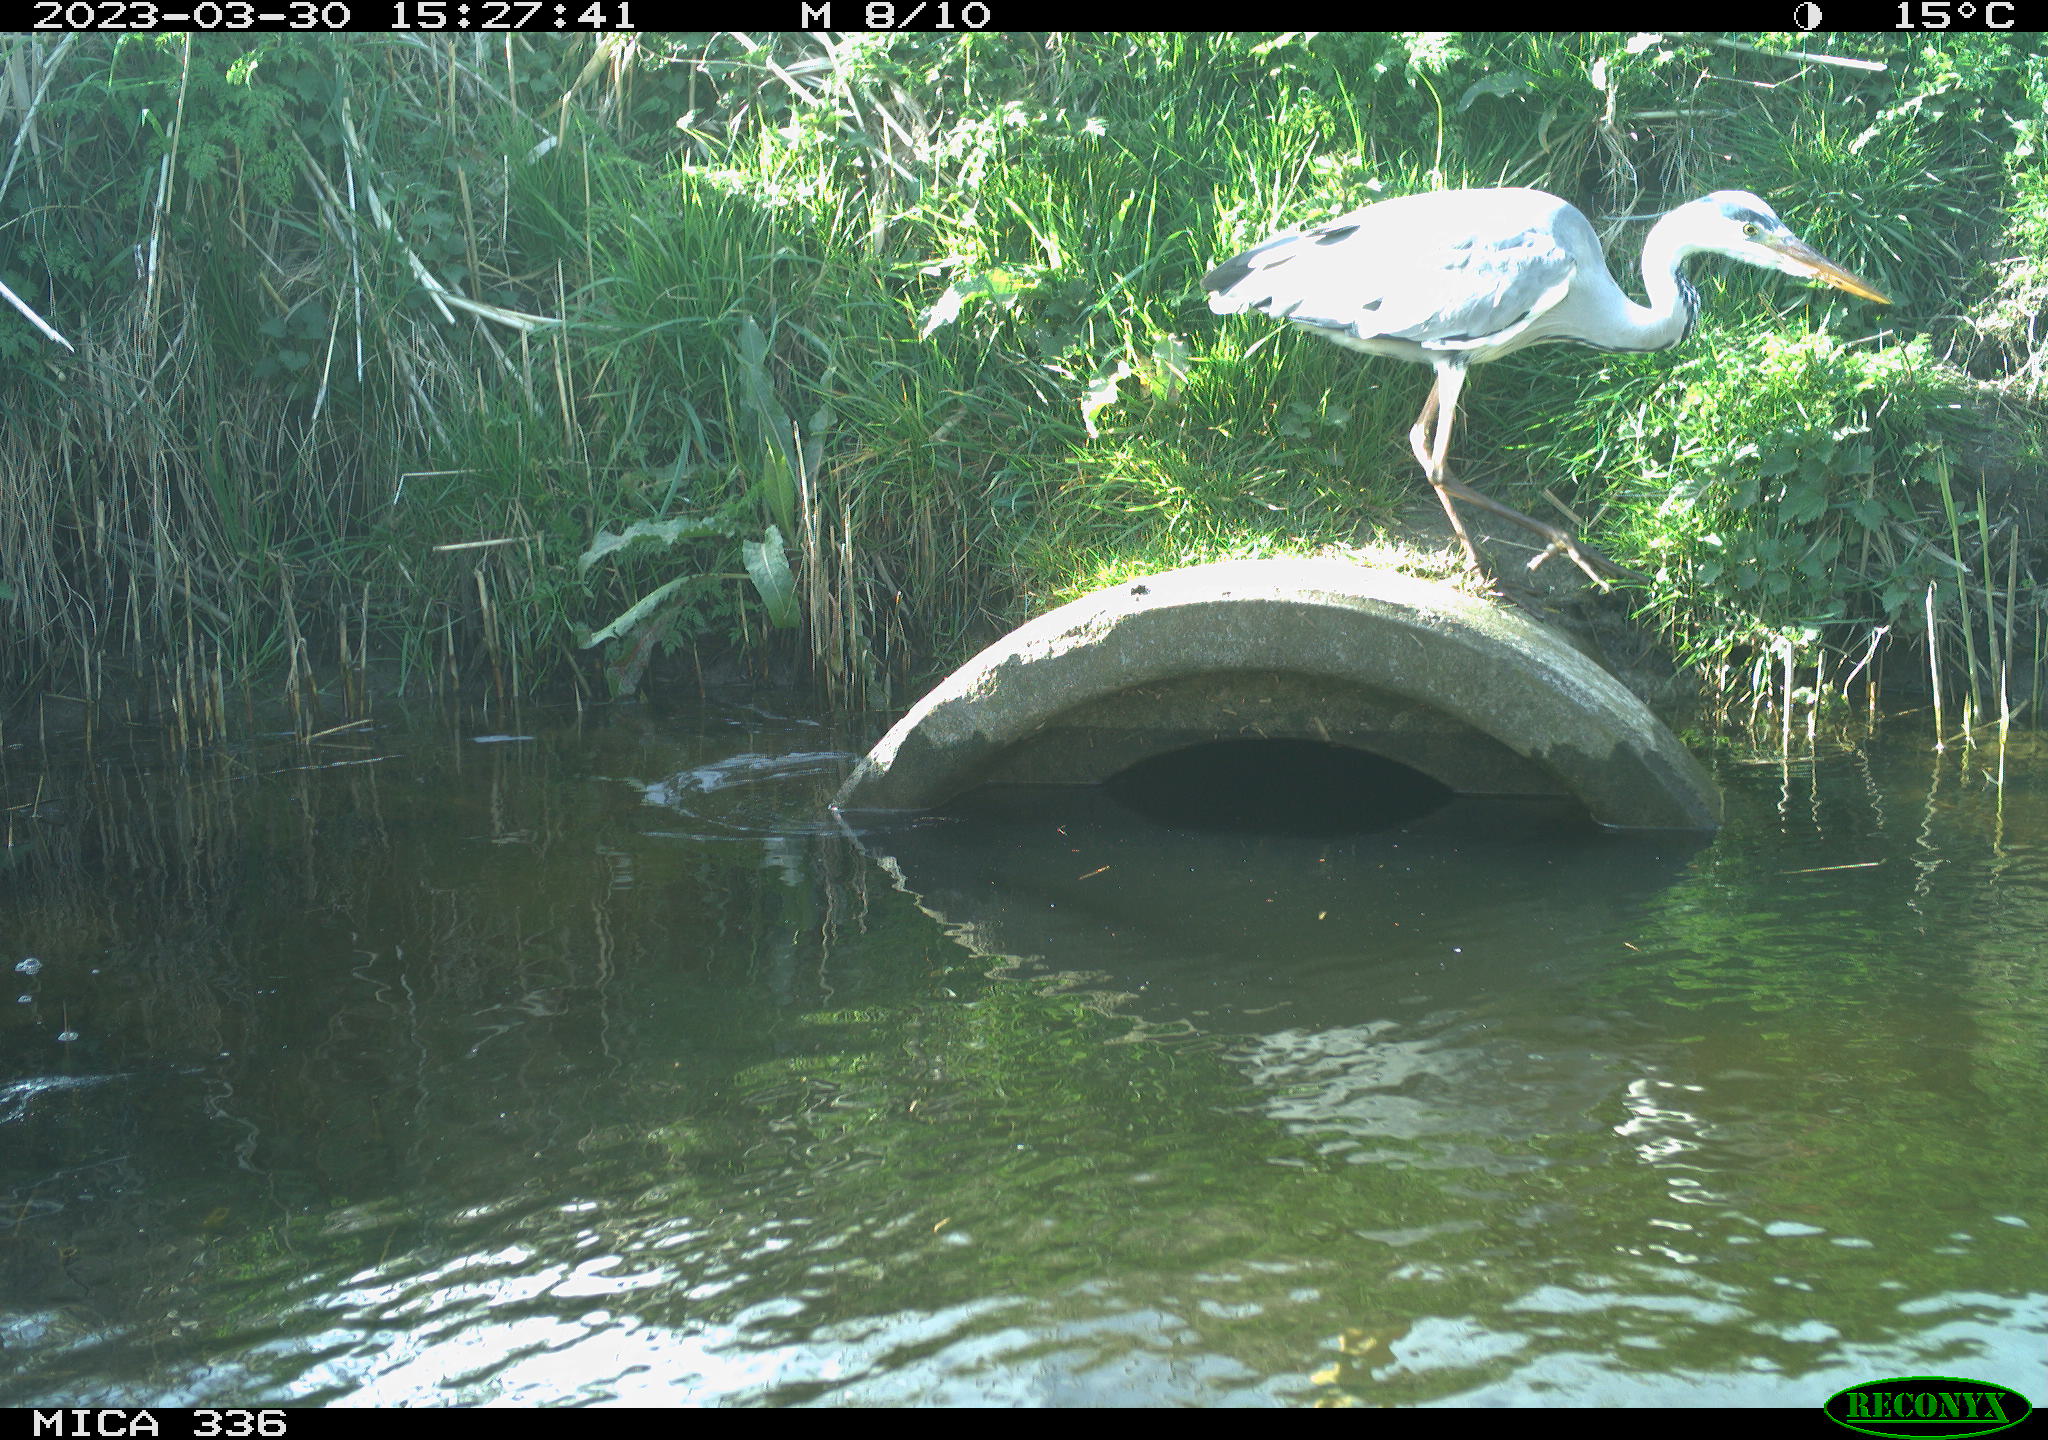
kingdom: Animalia
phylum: Chordata
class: Aves
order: Pelecaniformes
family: Ardeidae
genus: Ardea
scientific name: Ardea
